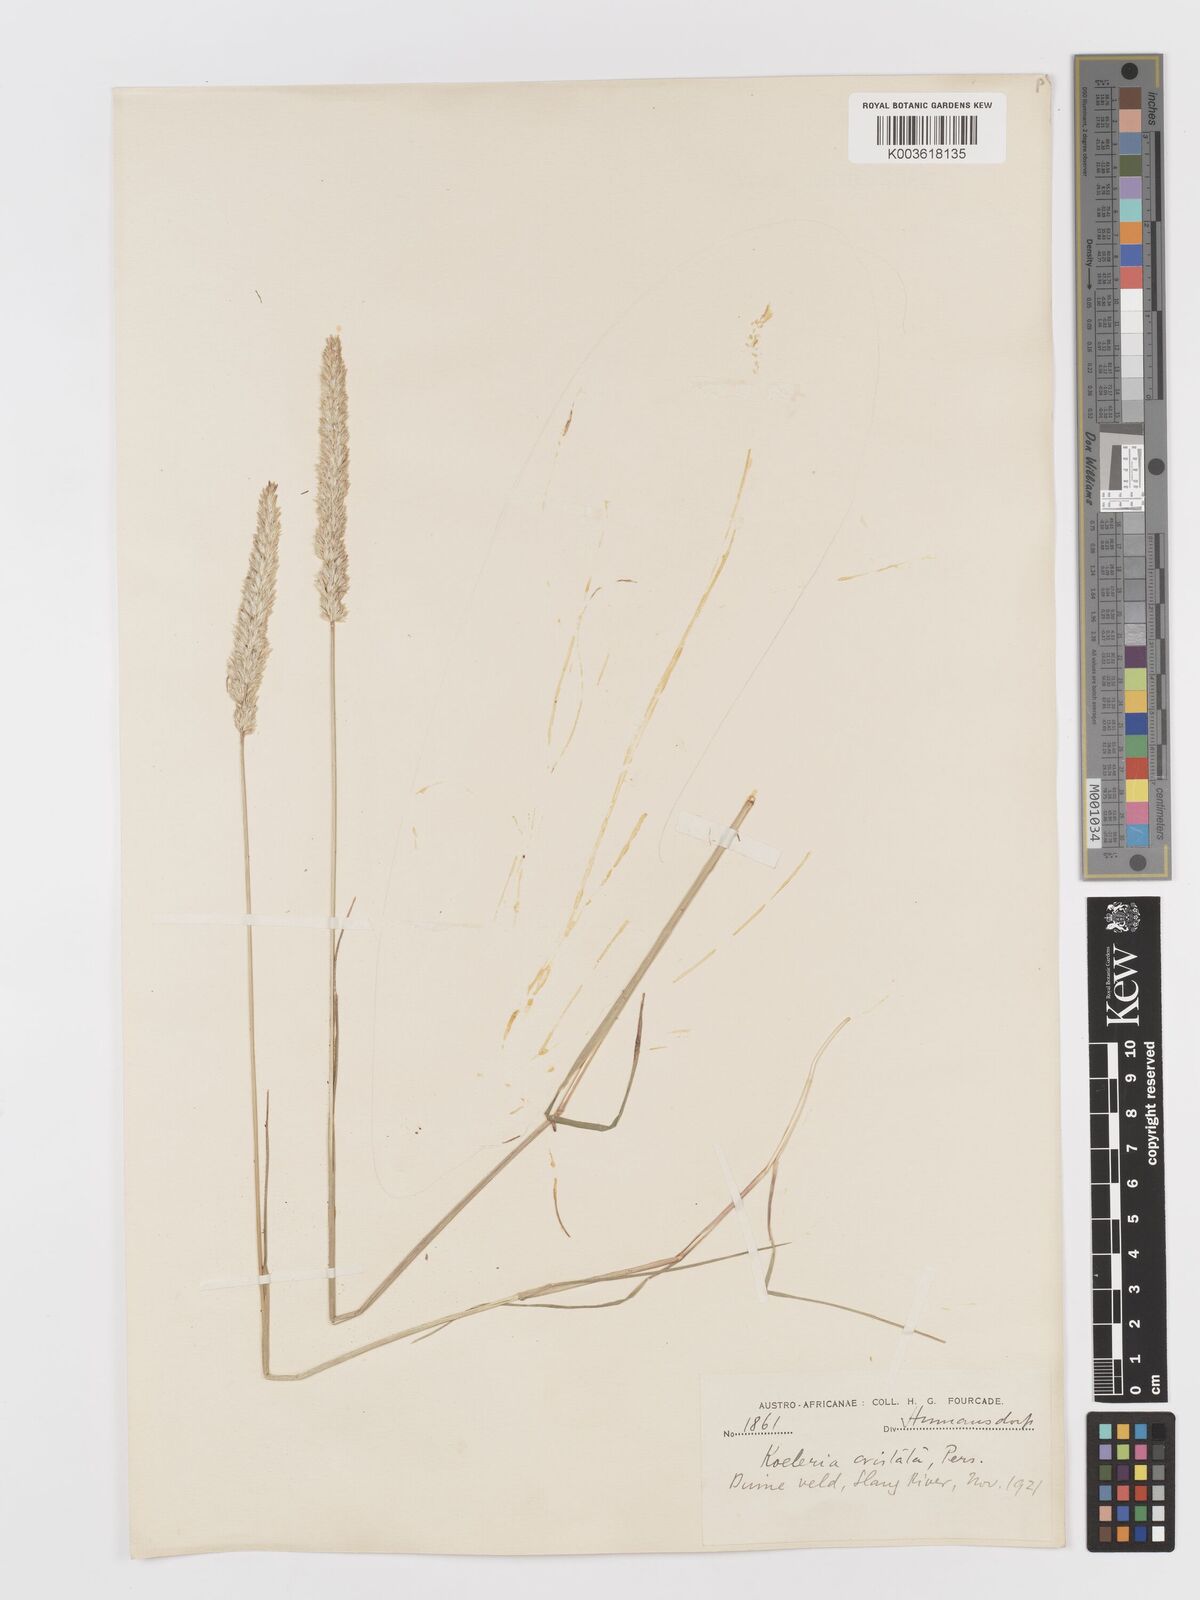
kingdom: Plantae
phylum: Tracheophyta
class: Liliopsida
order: Poales
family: Poaceae
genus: Koeleria
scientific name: Koeleria capensis
